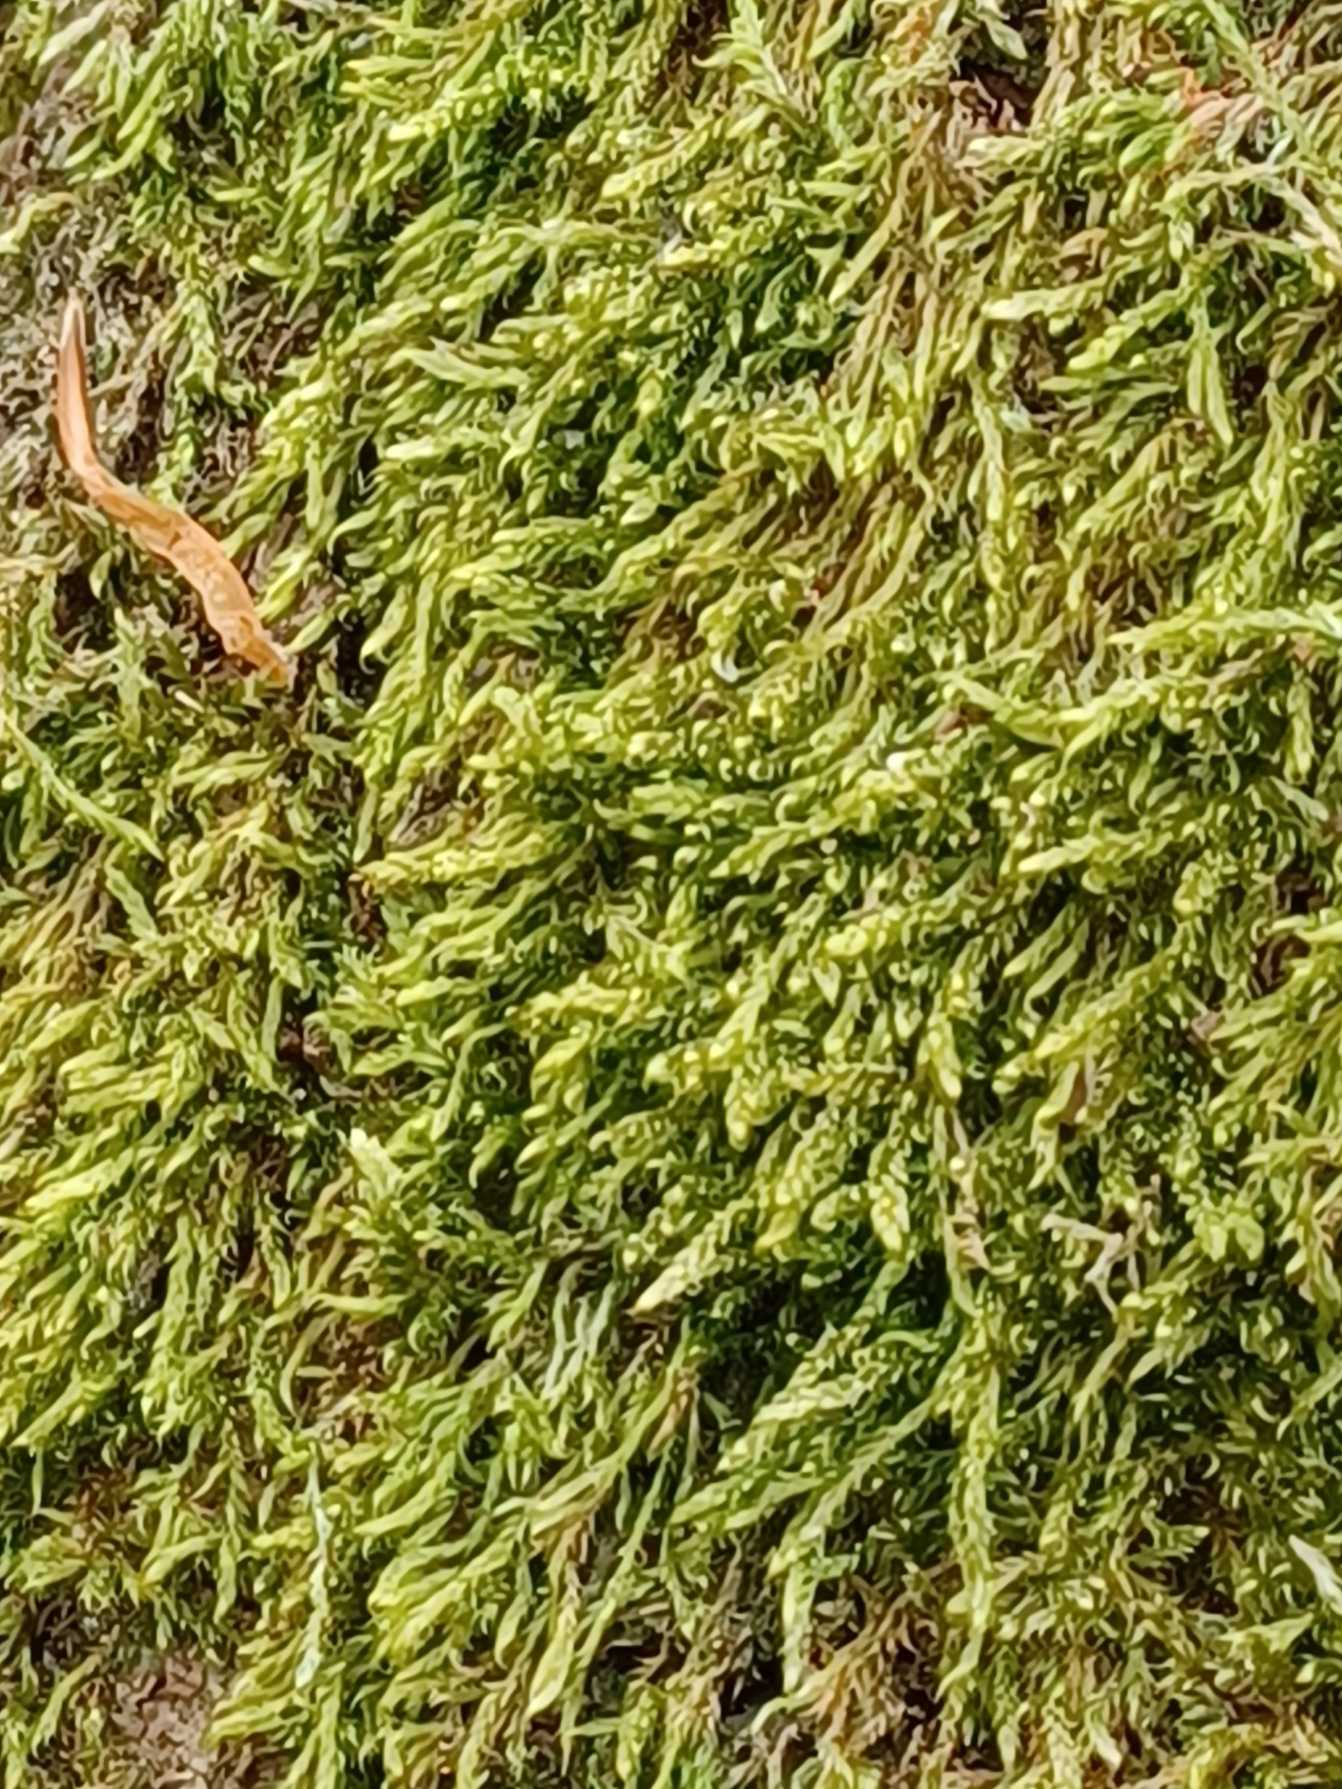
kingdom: Plantae
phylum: Bryophyta
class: Bryopsida
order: Hypnales
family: Hypnaceae
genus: Hypnum
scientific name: Hypnum
